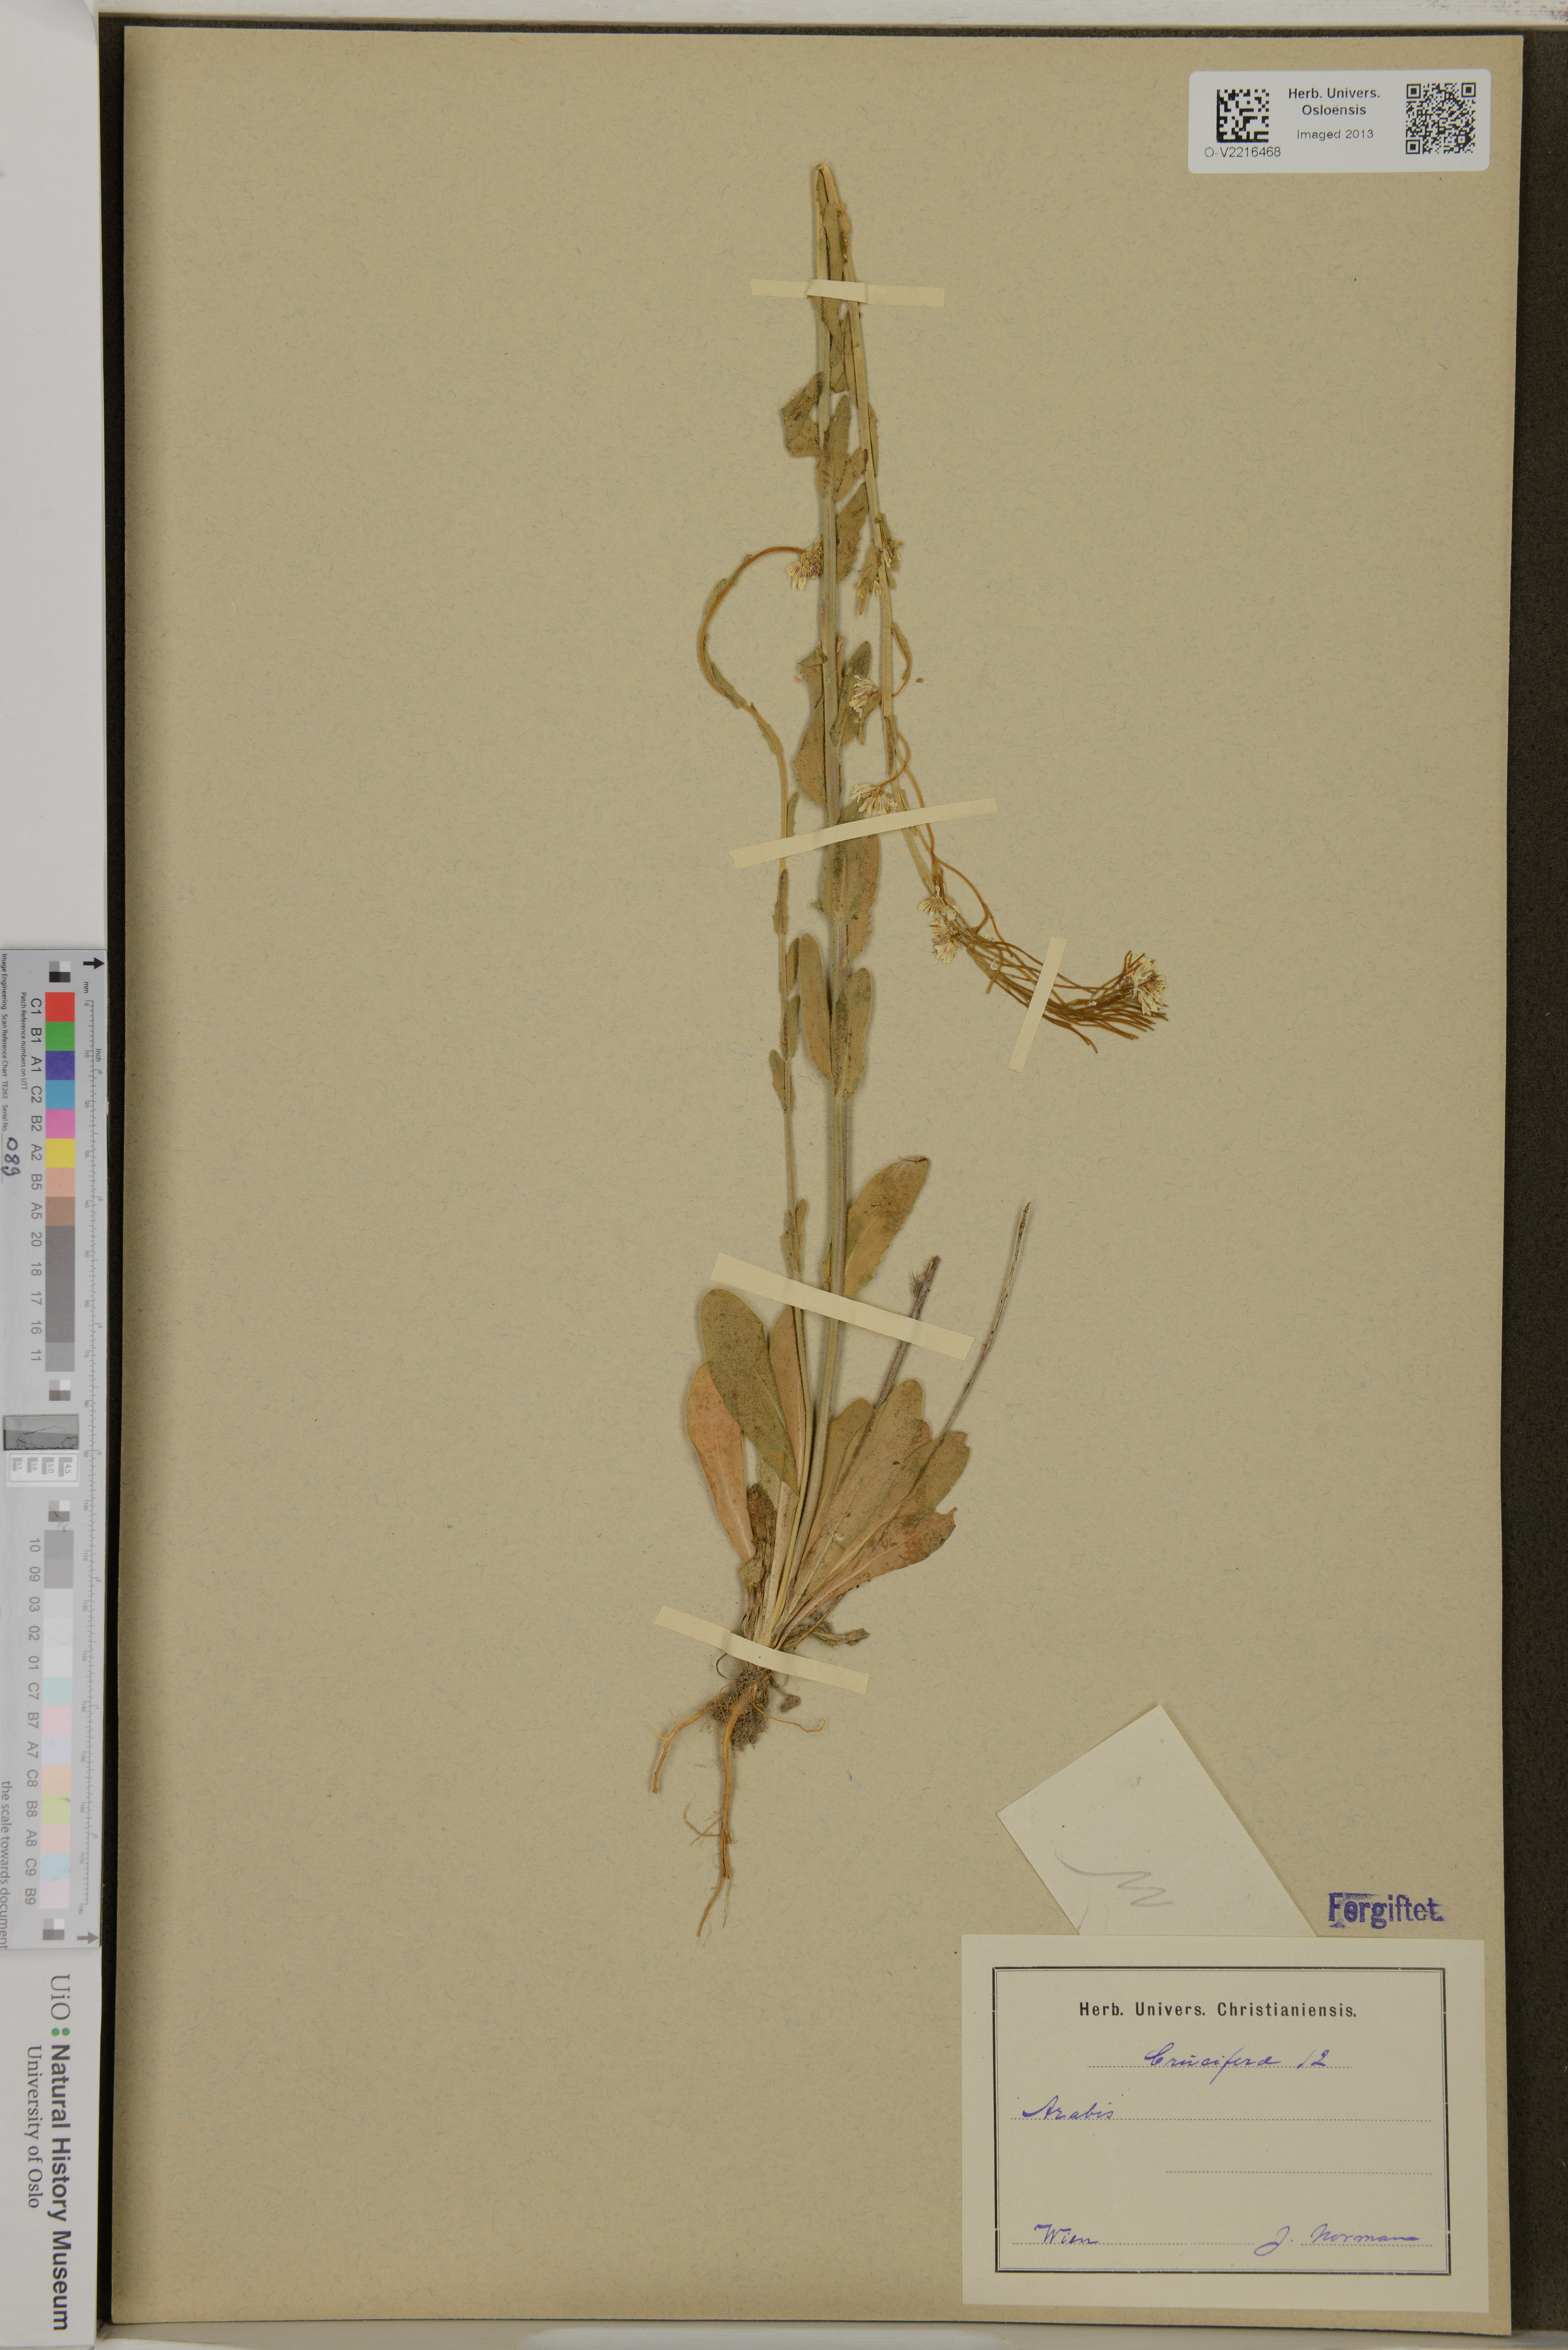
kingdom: Plantae
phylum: Tracheophyta
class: Magnoliopsida
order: Brassicales
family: Brassicaceae
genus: Arabis
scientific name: Arabis
